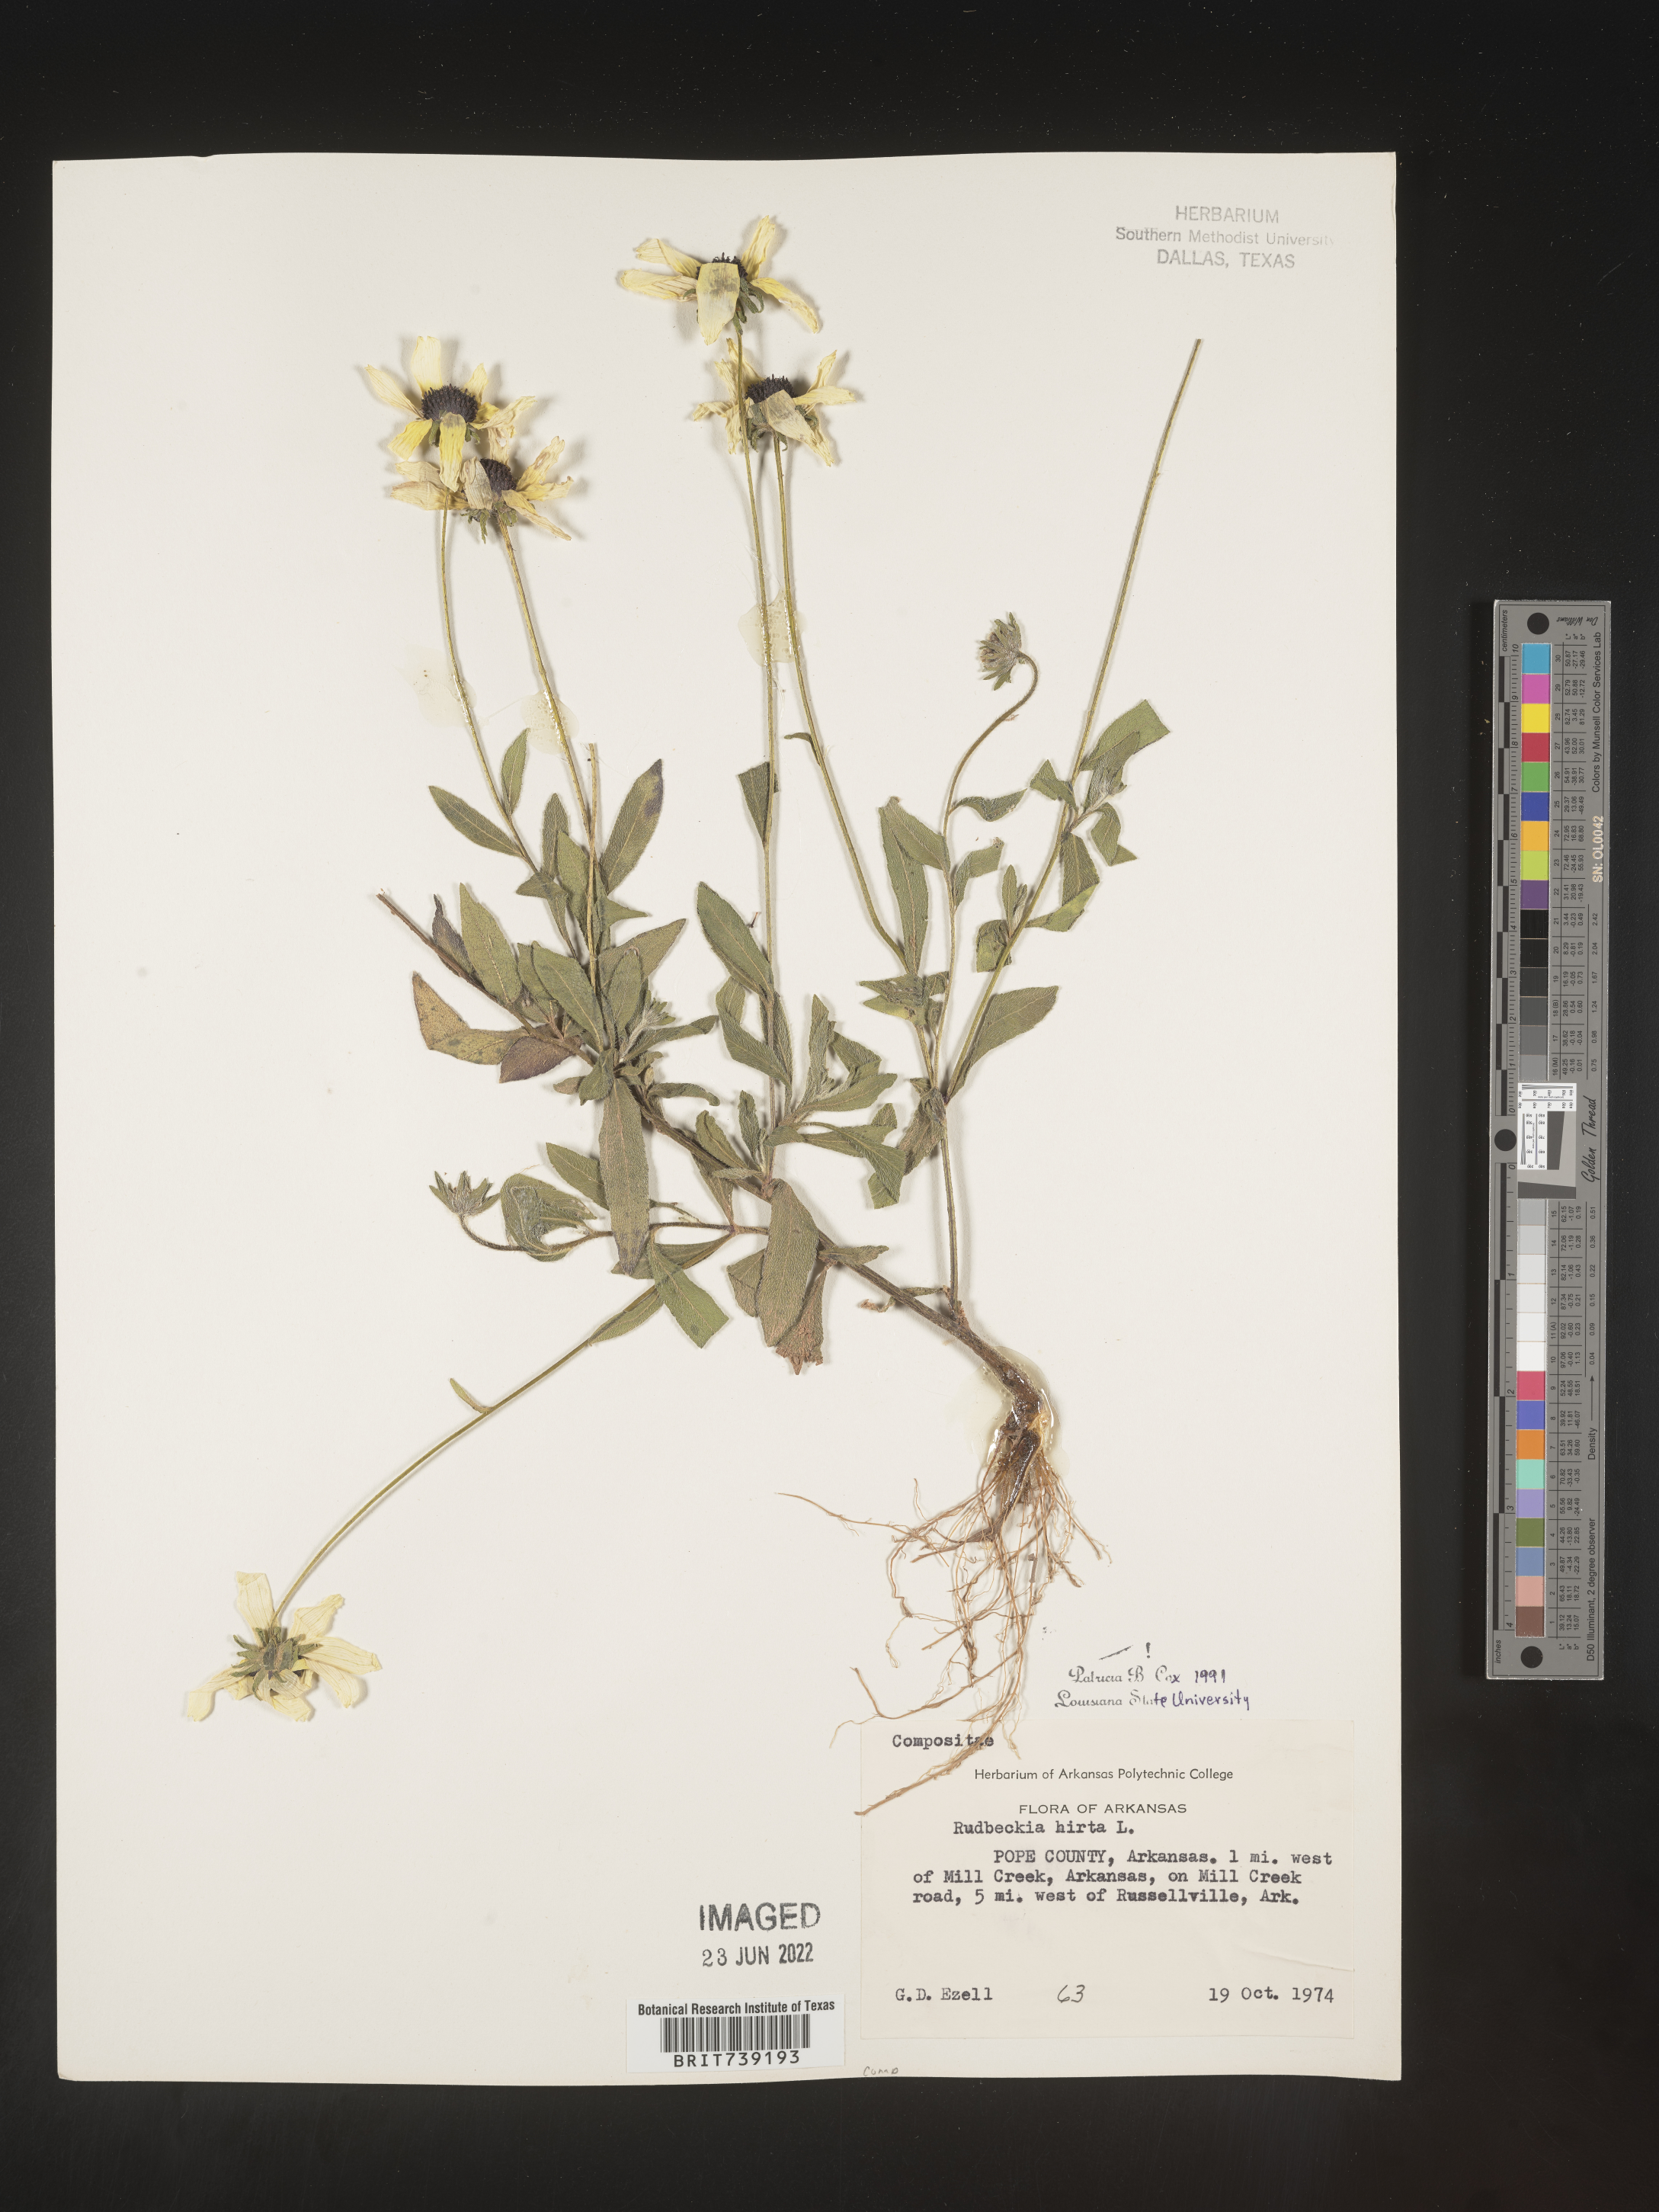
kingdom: Plantae
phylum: Tracheophyta
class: Magnoliopsida
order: Asterales
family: Asteraceae
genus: Rudbeckia
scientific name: Rudbeckia hirta
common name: Black-eyed-susan
